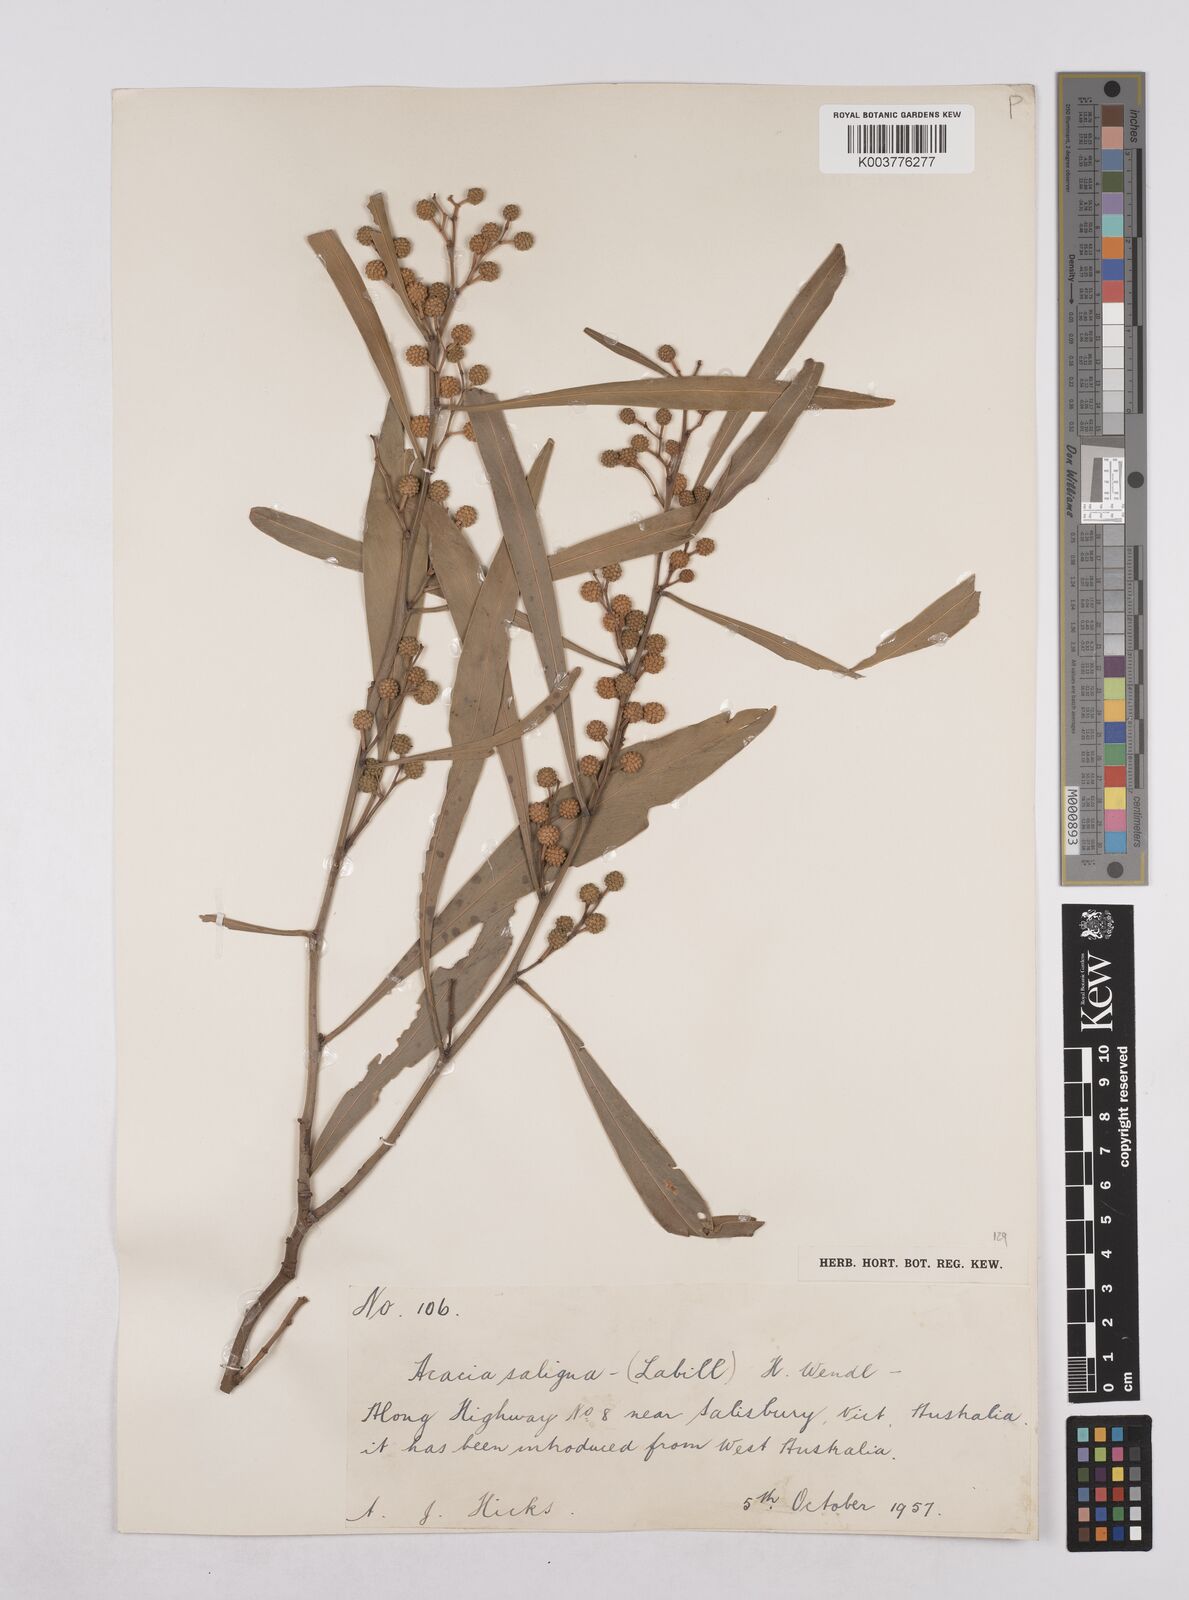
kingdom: Plantae
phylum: Tracheophyta
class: Magnoliopsida
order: Fabales
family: Fabaceae
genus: Acacia
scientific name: Acacia saligna
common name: Orange wattle
